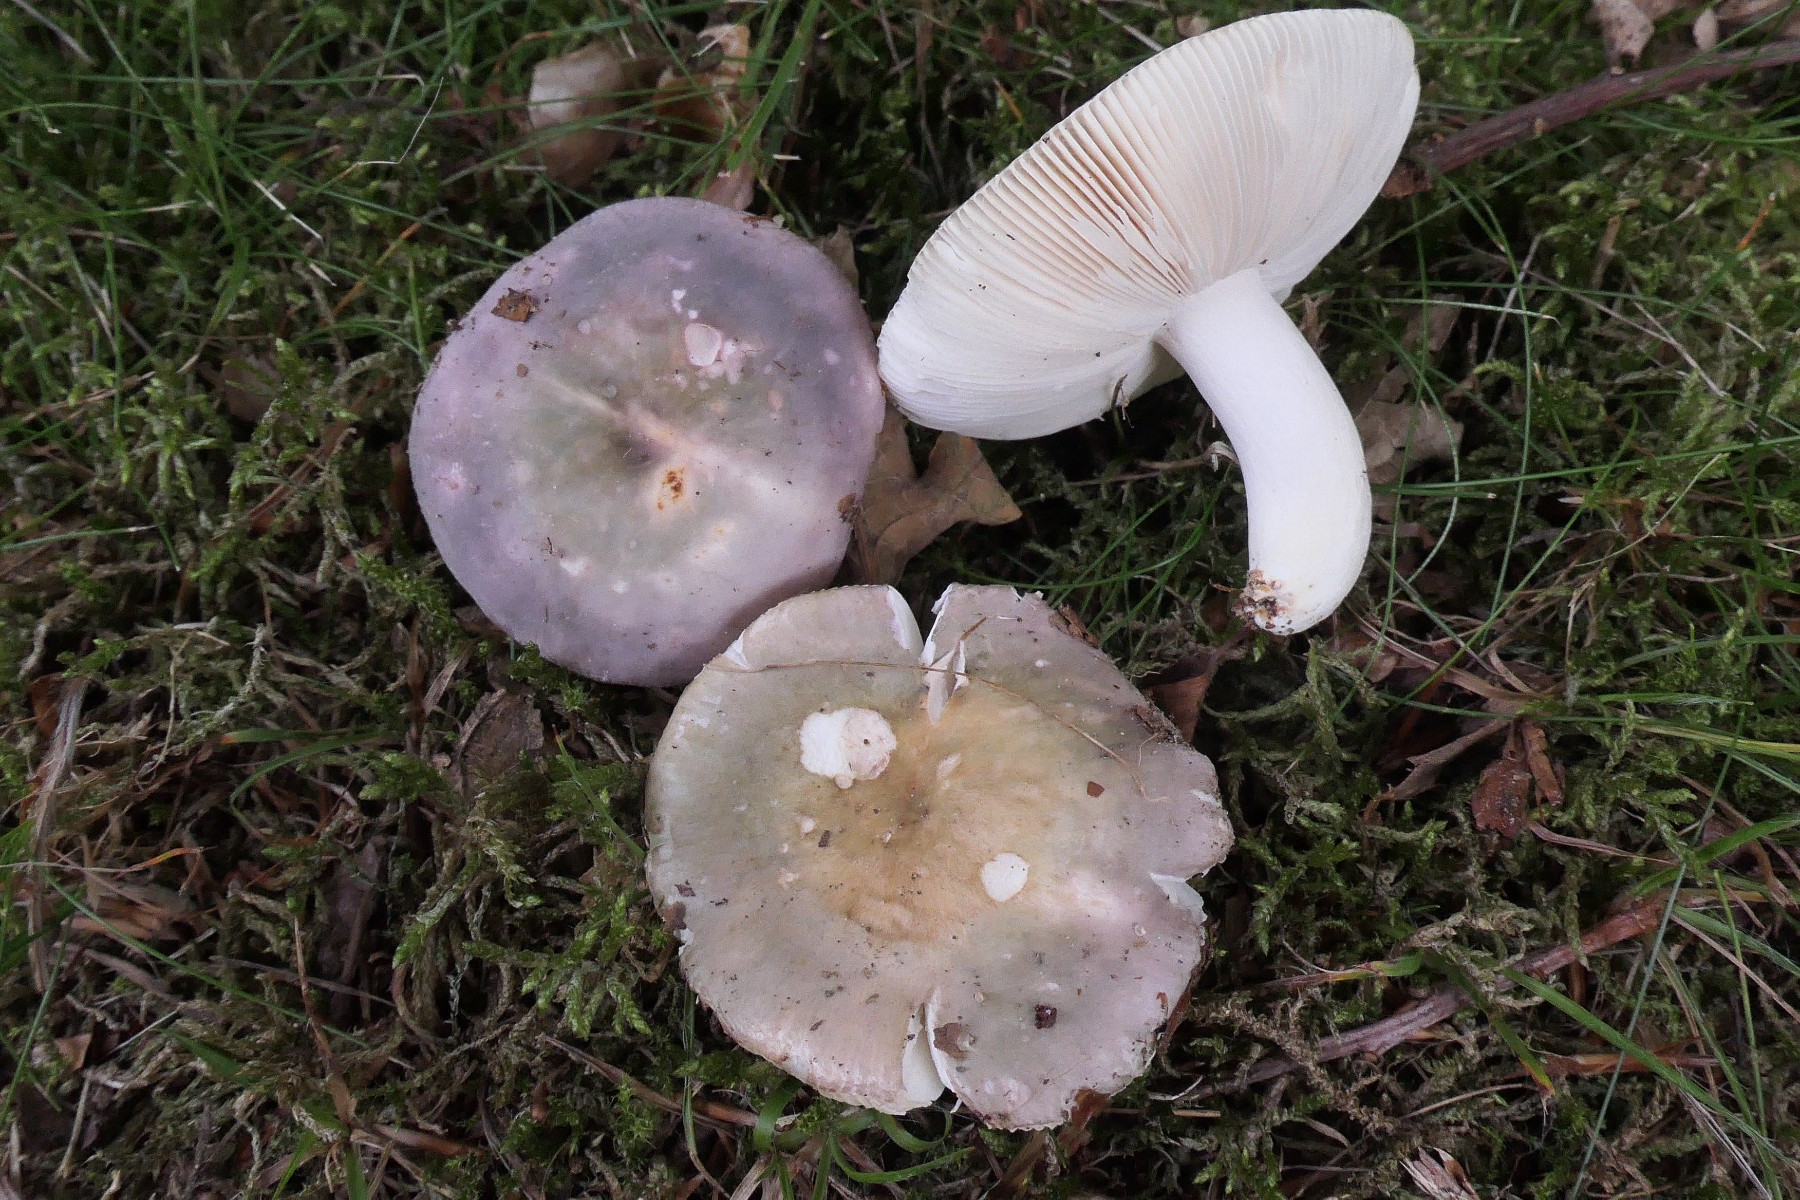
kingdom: Fungi
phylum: Basidiomycota
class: Agaricomycetes
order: Russulales
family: Russulaceae
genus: Russula
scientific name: Russula ionochlora
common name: violetgrøn skørhat
